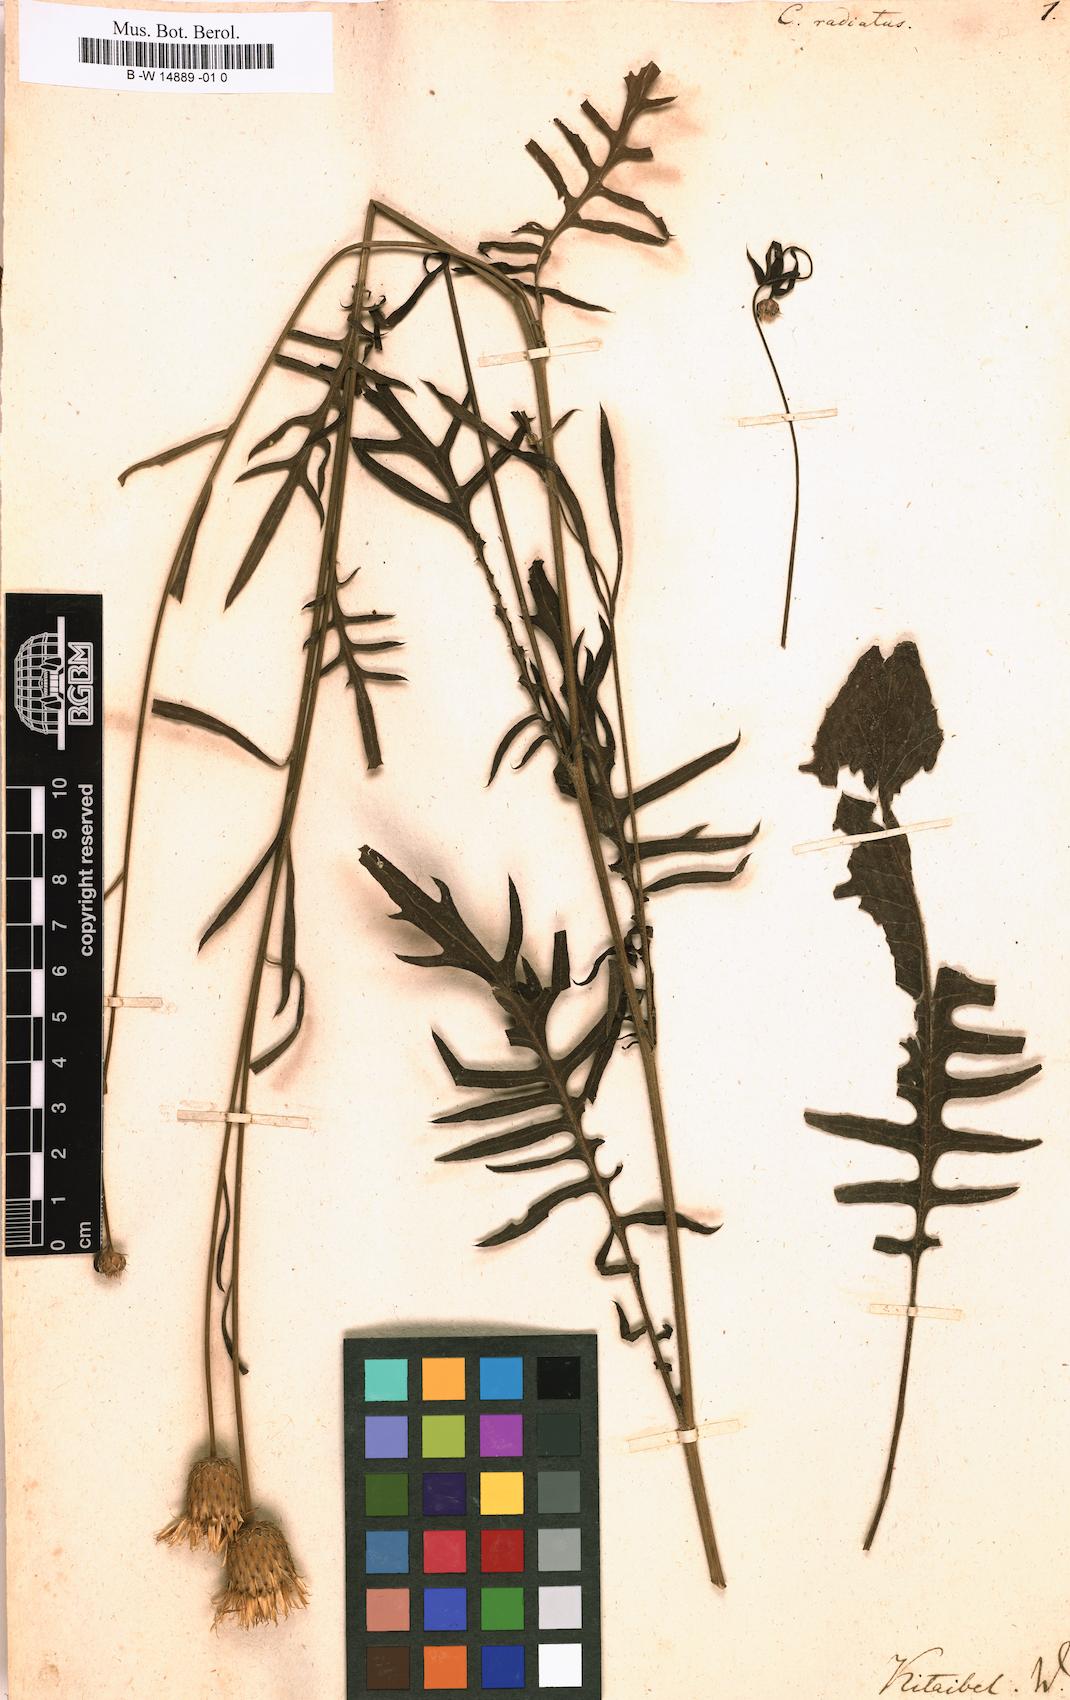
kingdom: Plantae
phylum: Tracheophyta
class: Magnoliopsida
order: Asterales
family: Asteraceae
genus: Klasea
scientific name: Klasea radiata
